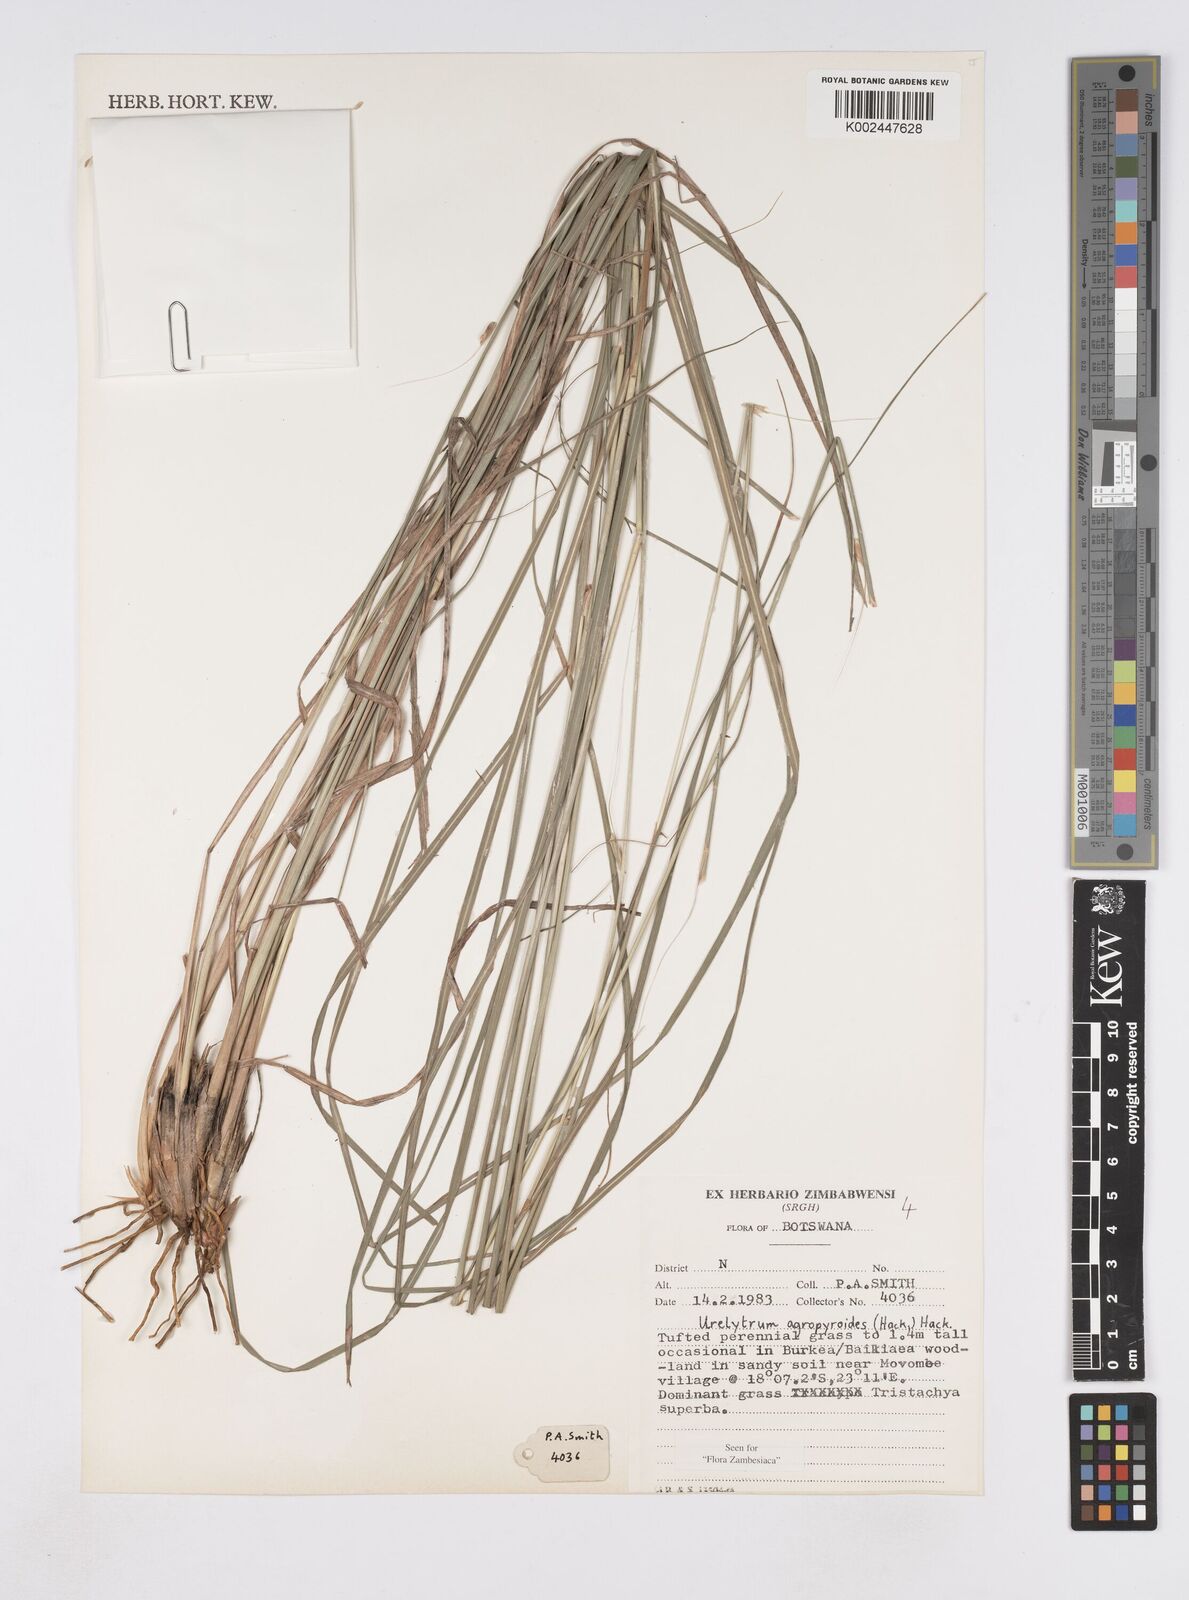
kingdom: Plantae
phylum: Tracheophyta
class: Liliopsida
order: Poales
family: Poaceae
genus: Urelytrum
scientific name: Urelytrum agropyroides
